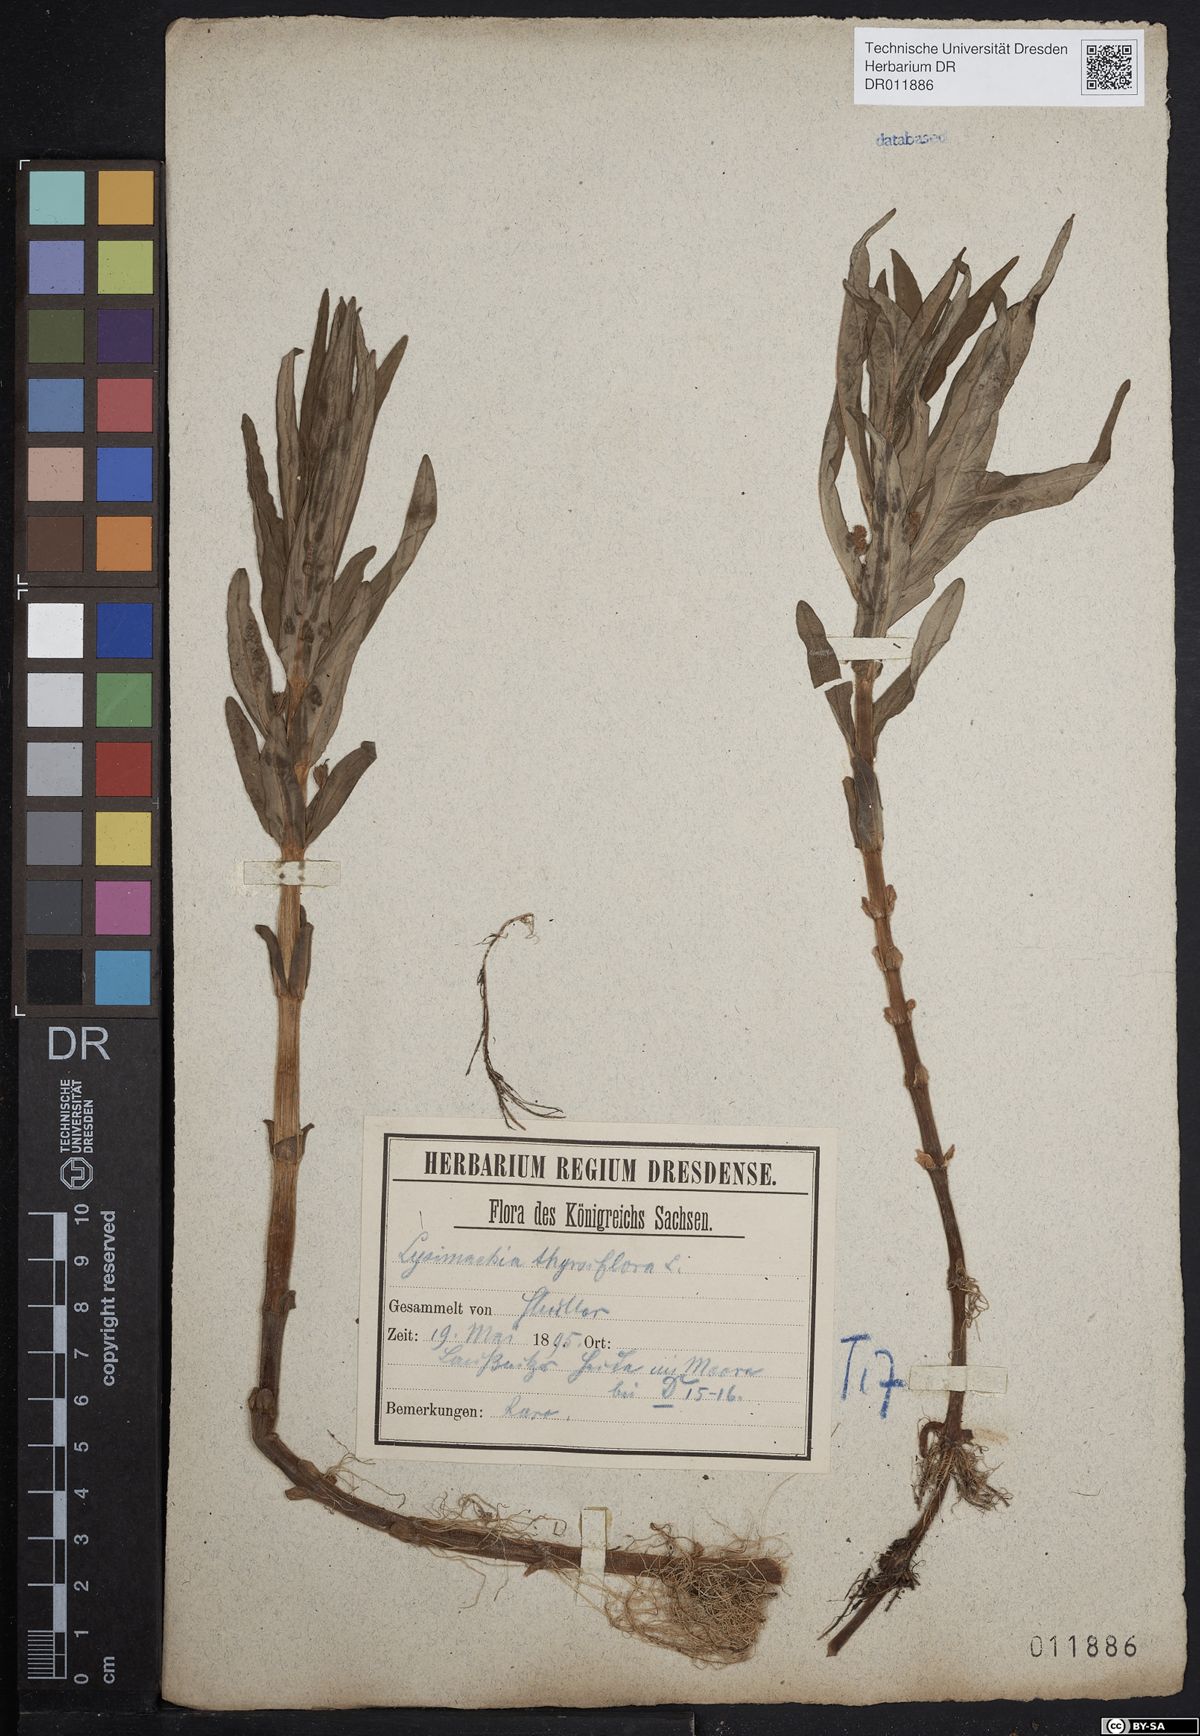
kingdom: Plantae
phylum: Tracheophyta
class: Magnoliopsida
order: Ericales
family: Primulaceae
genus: Lysimachia
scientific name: Lysimachia thyrsiflora
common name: Tufted loosestrife
